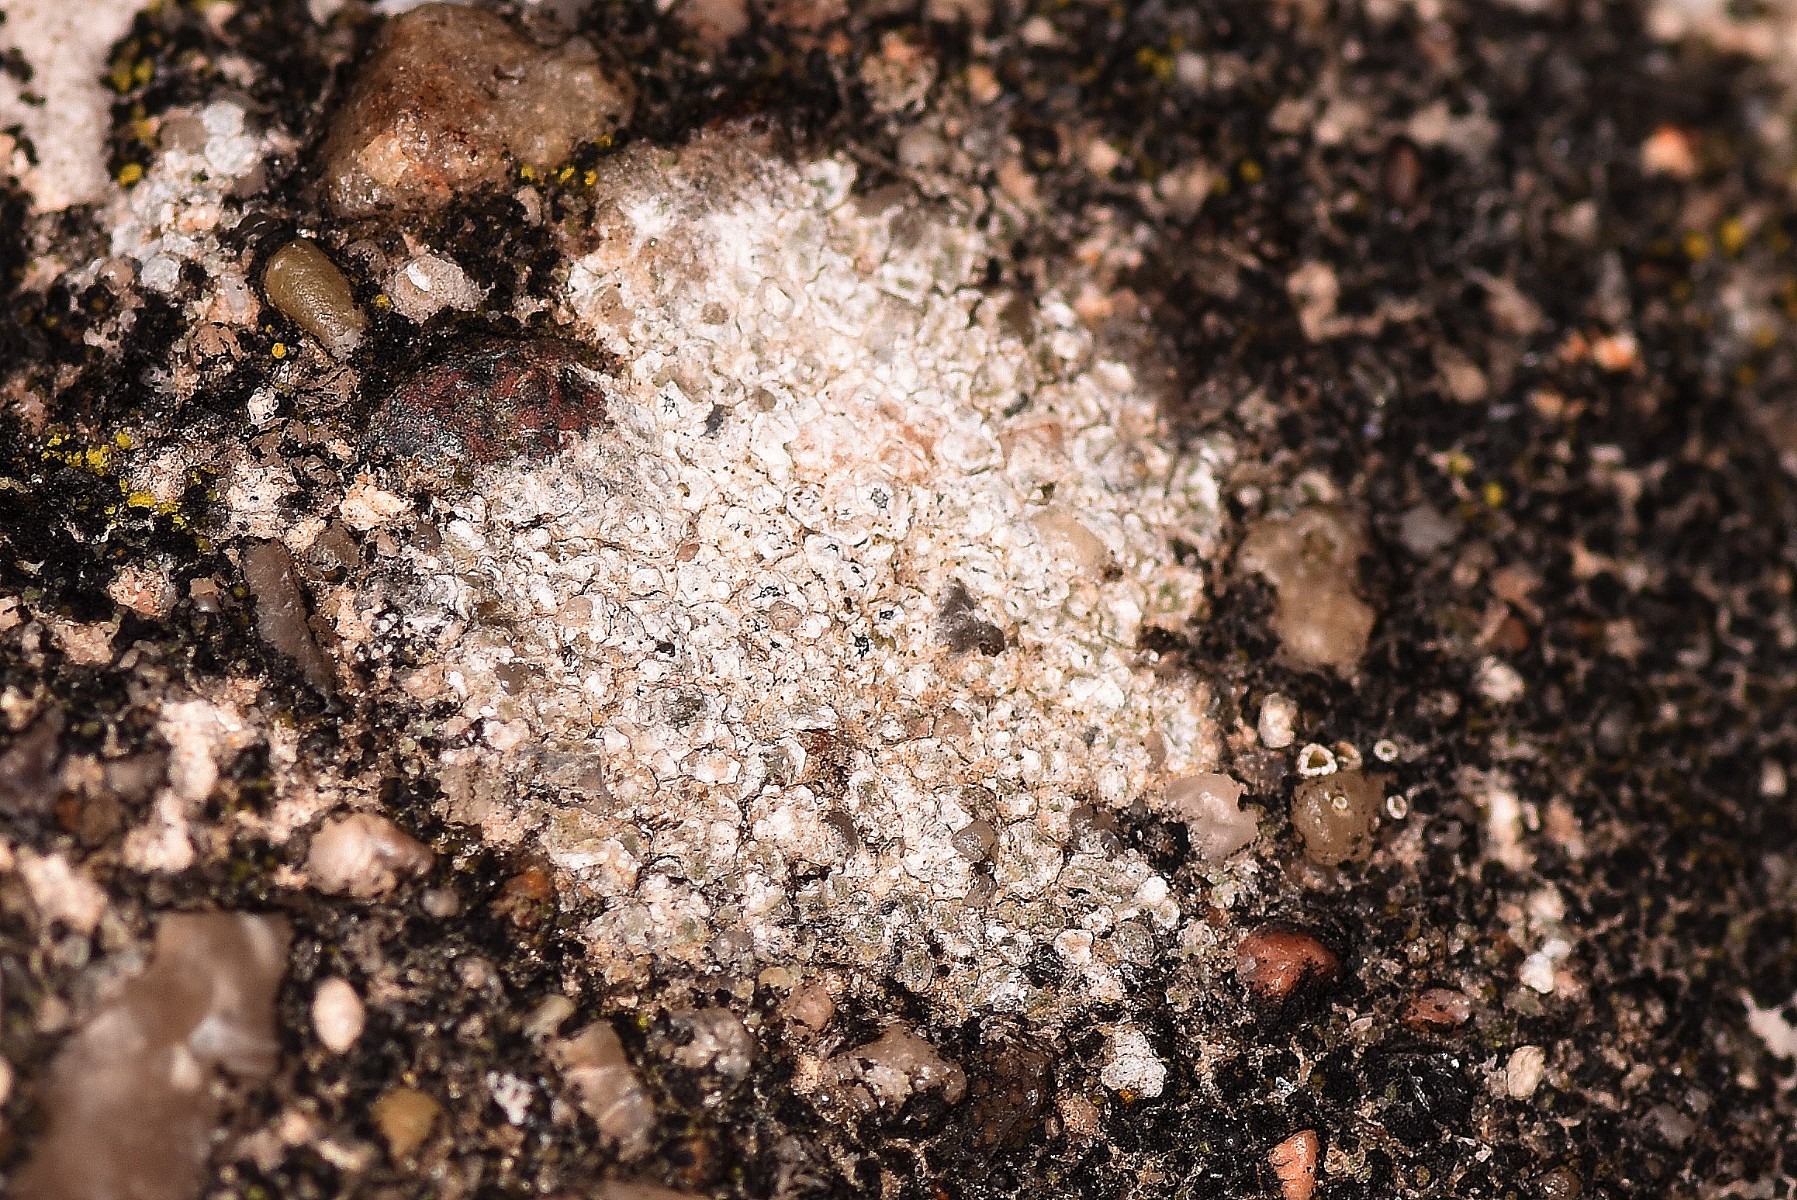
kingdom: Fungi
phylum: Ascomycota
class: Lecanoromycetes
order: Lecanorales
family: Lecanoraceae
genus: Polyozosia
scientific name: Polyozosia albescens
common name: cement-kantskivelav
